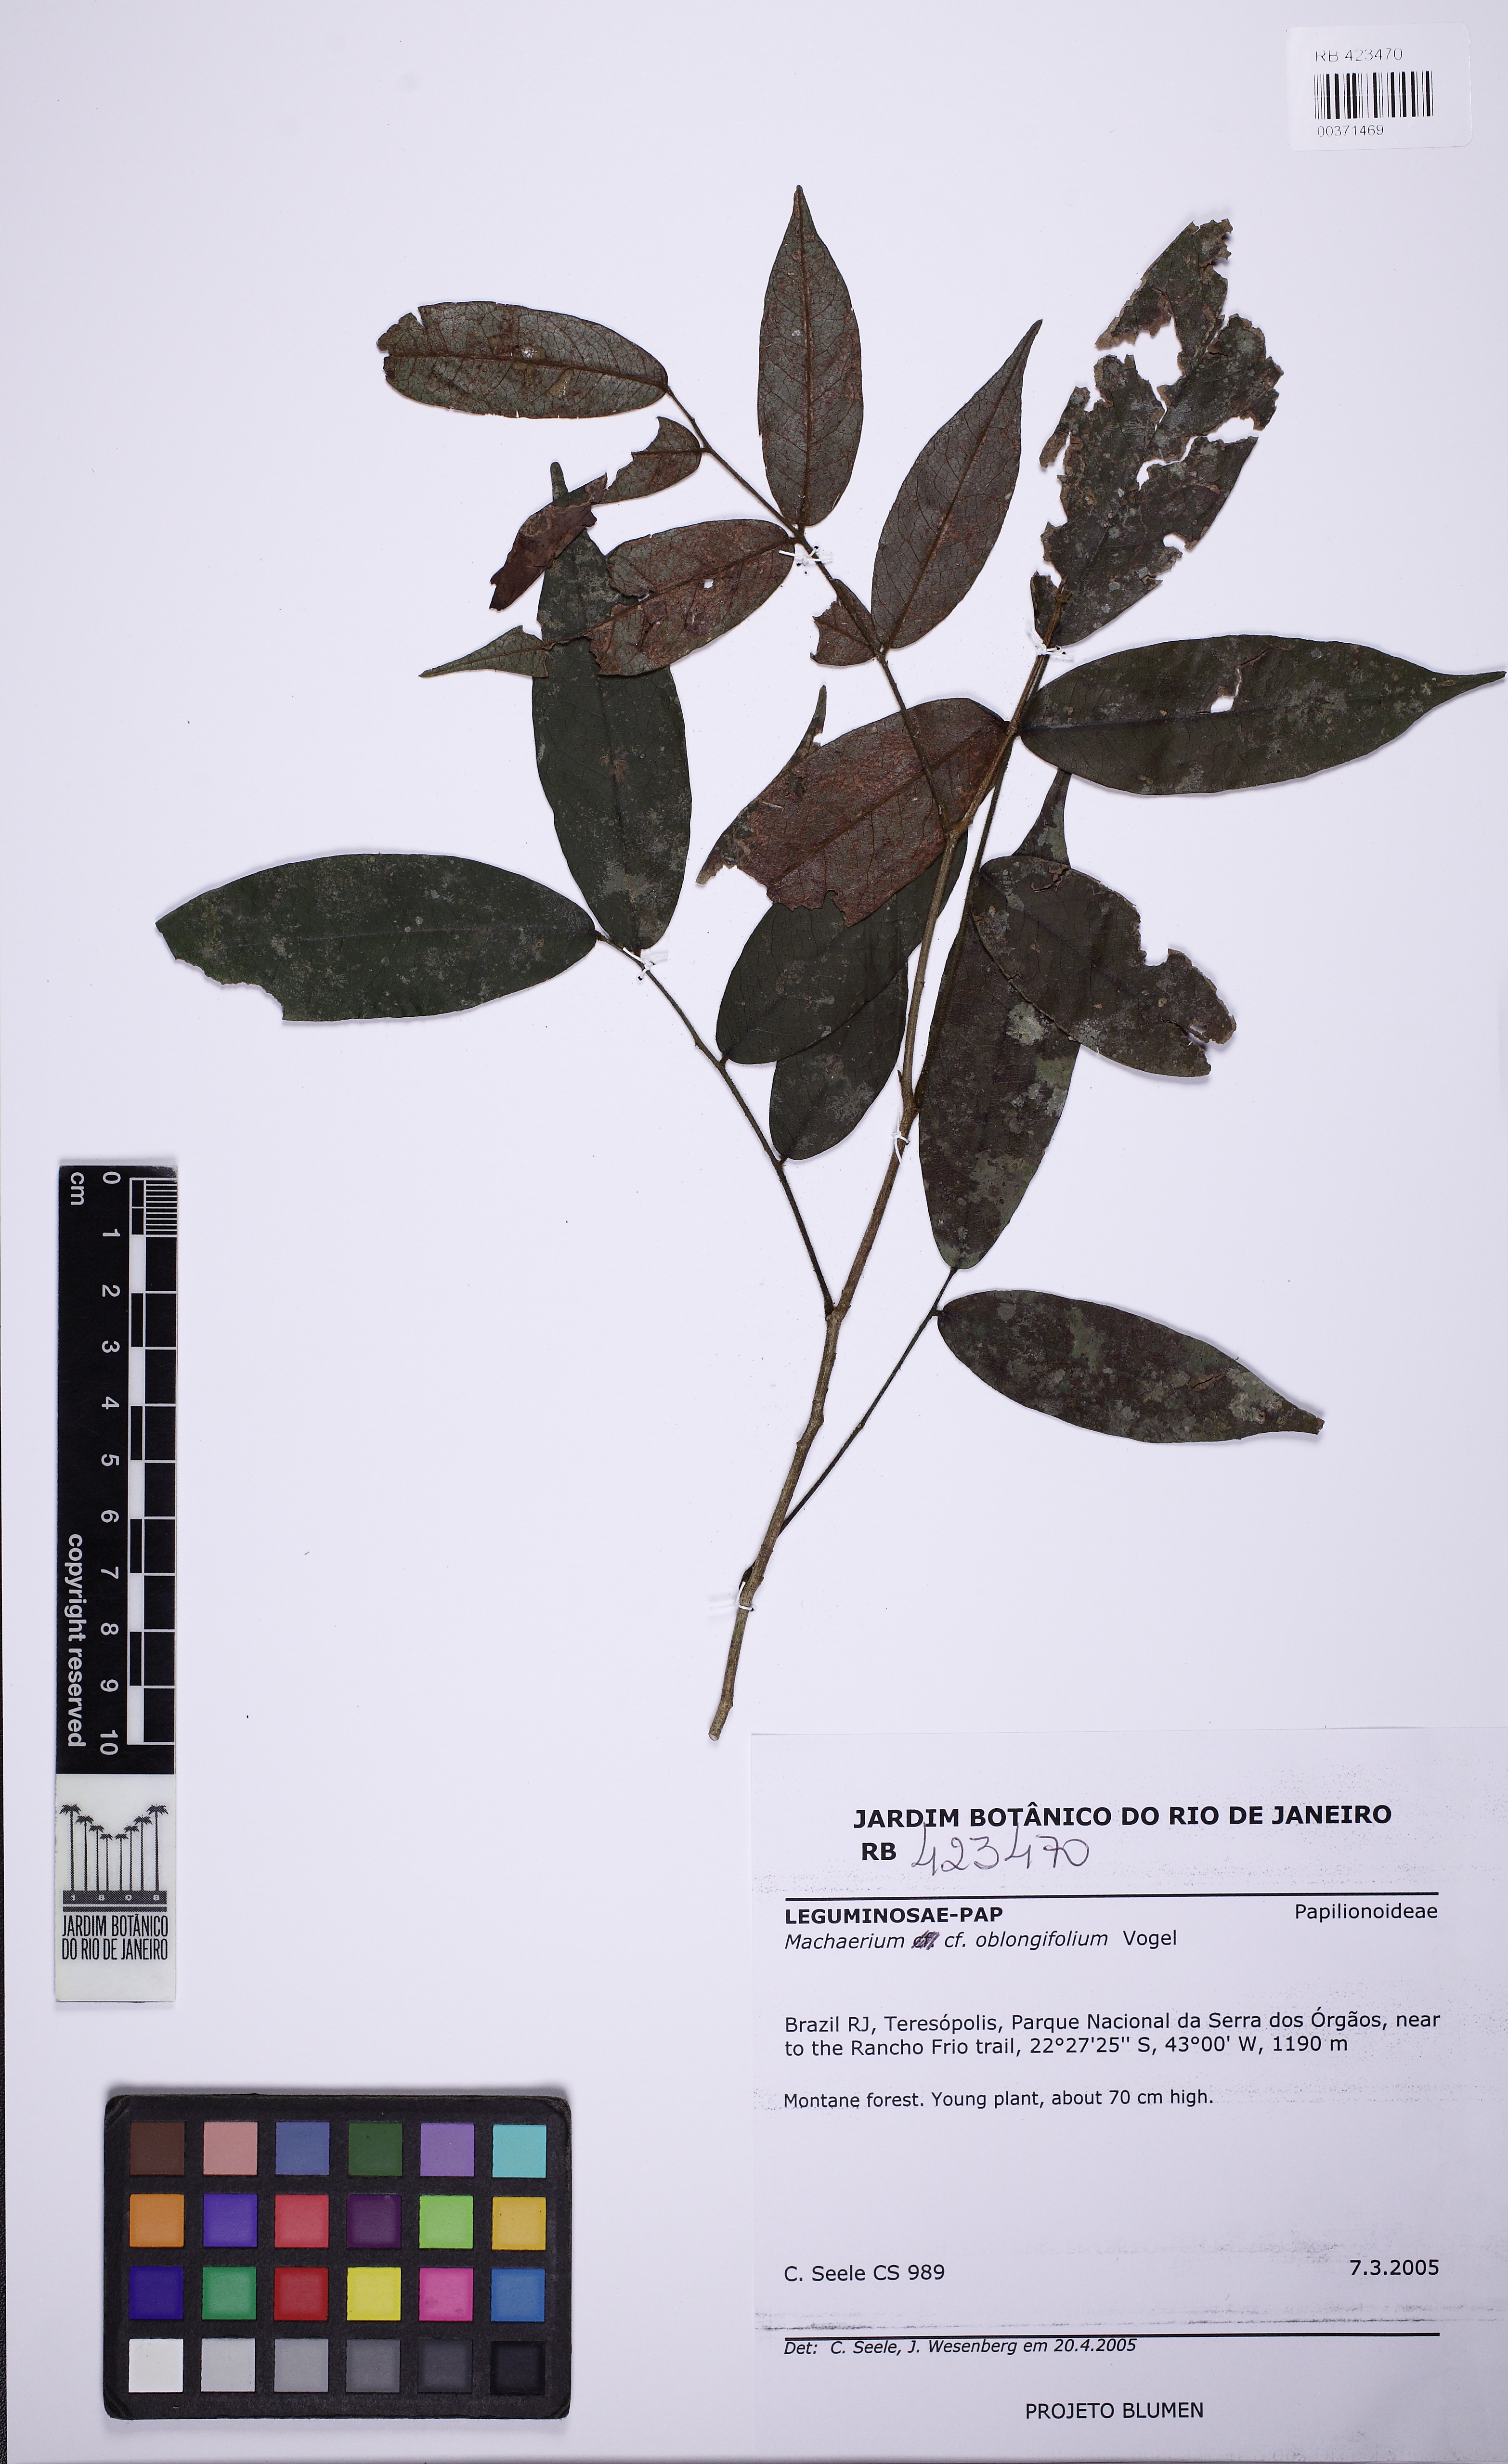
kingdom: Plantae
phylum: Tracheophyta
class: Magnoliopsida
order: Fabales
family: Fabaceae
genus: Machaerium
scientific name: Machaerium oblongifolium
